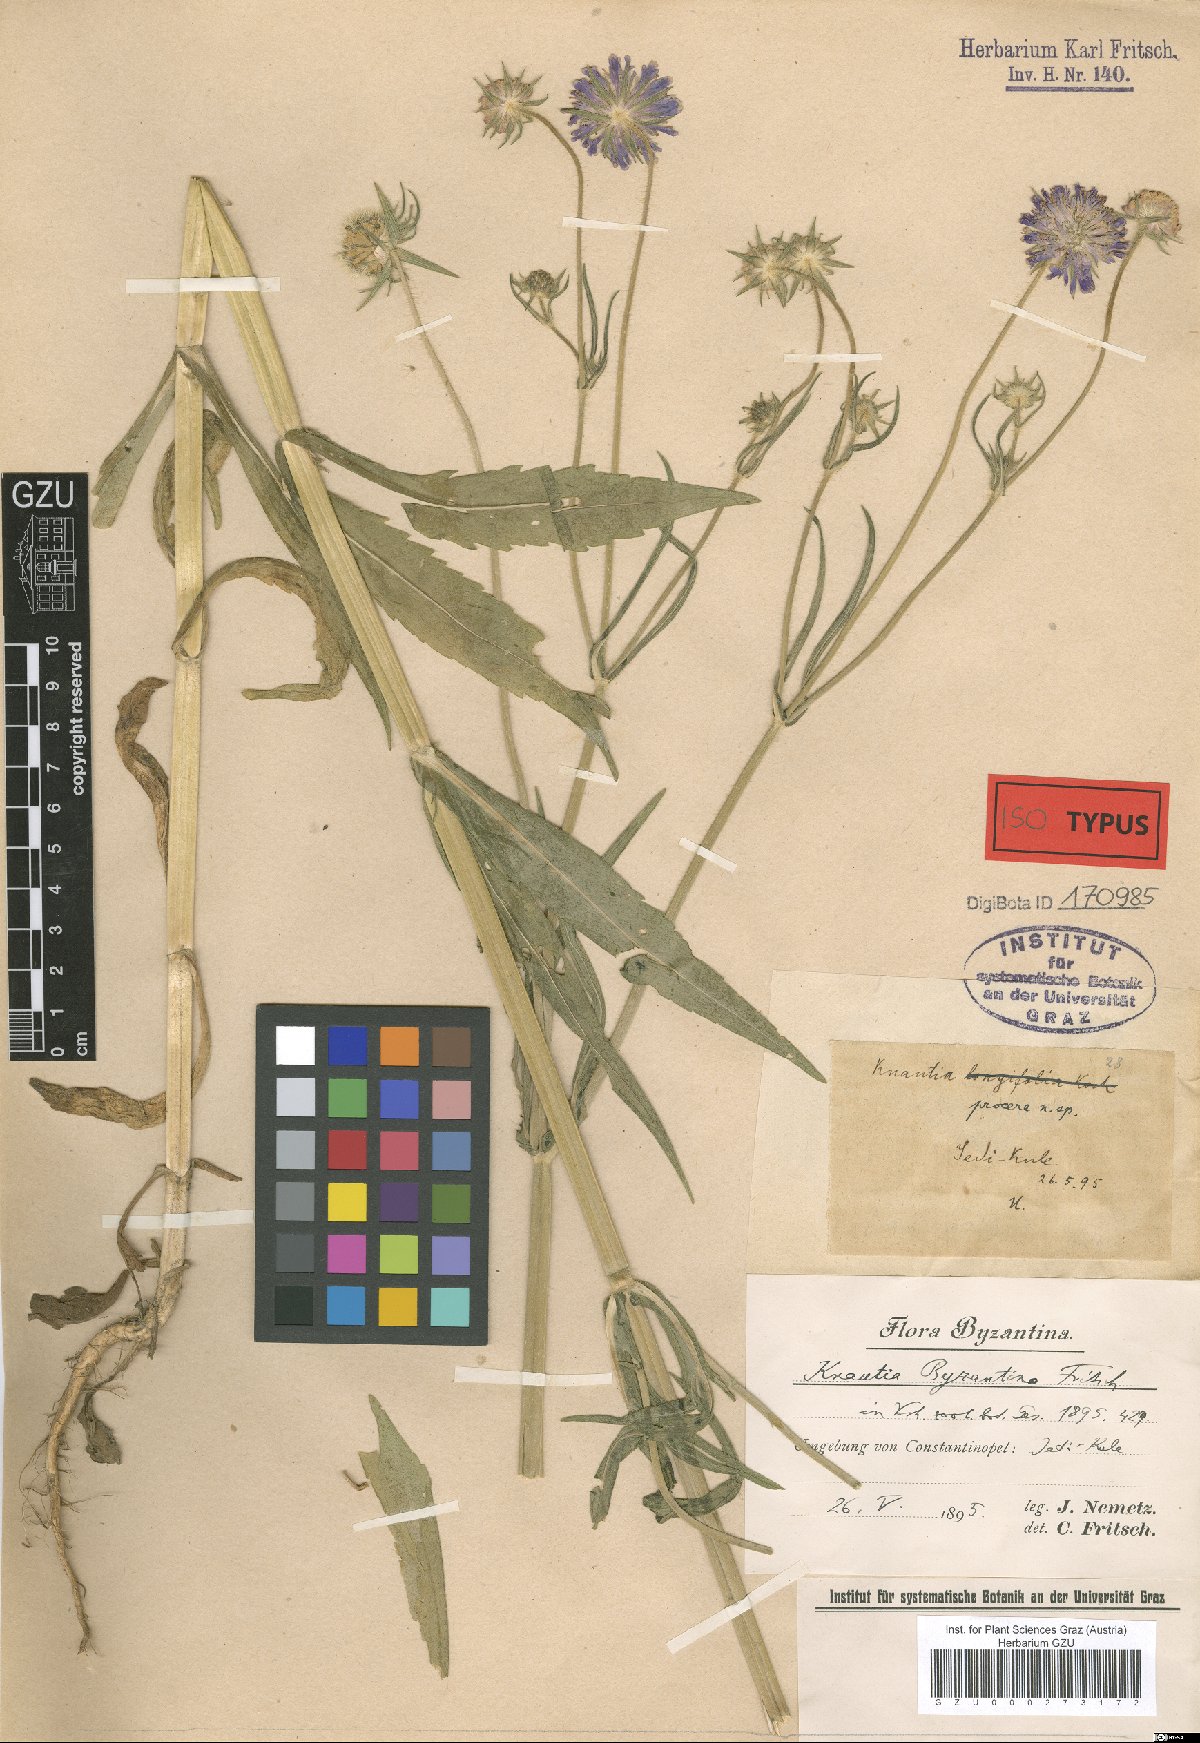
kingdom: Plantae
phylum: Tracheophyta
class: Magnoliopsida
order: Dipsacales
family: Caprifoliaceae
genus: Knautia
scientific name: Knautia byzantina
